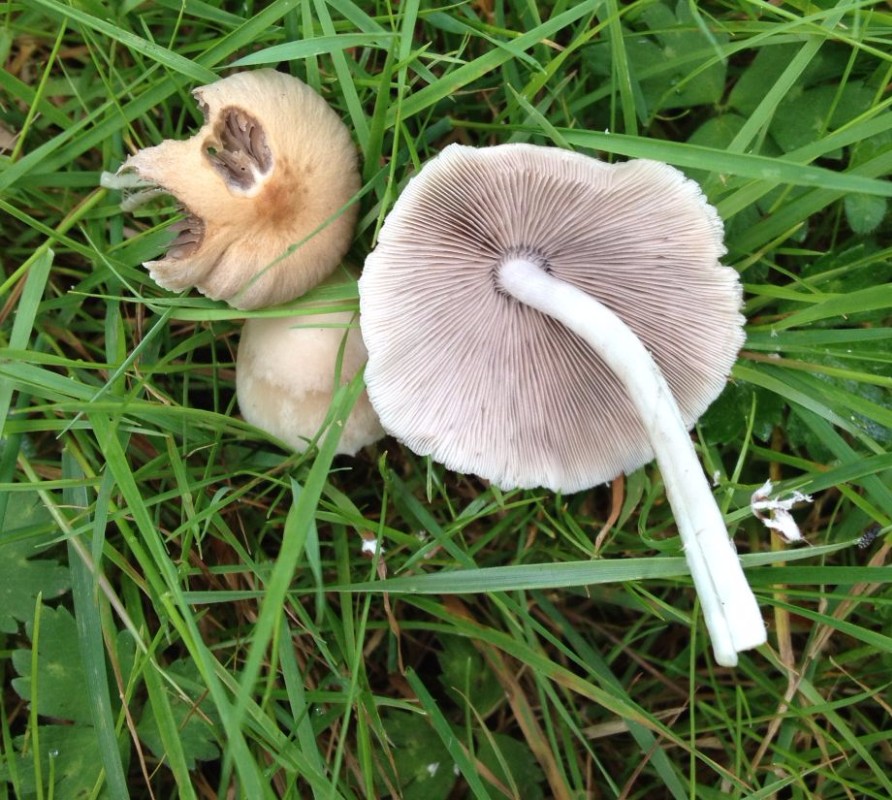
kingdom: Fungi
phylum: Basidiomycota
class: Agaricomycetes
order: Agaricales
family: Psathyrellaceae
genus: Candolleomyces
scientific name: Candolleomyces candolleanus
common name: Candolles mørkhat
